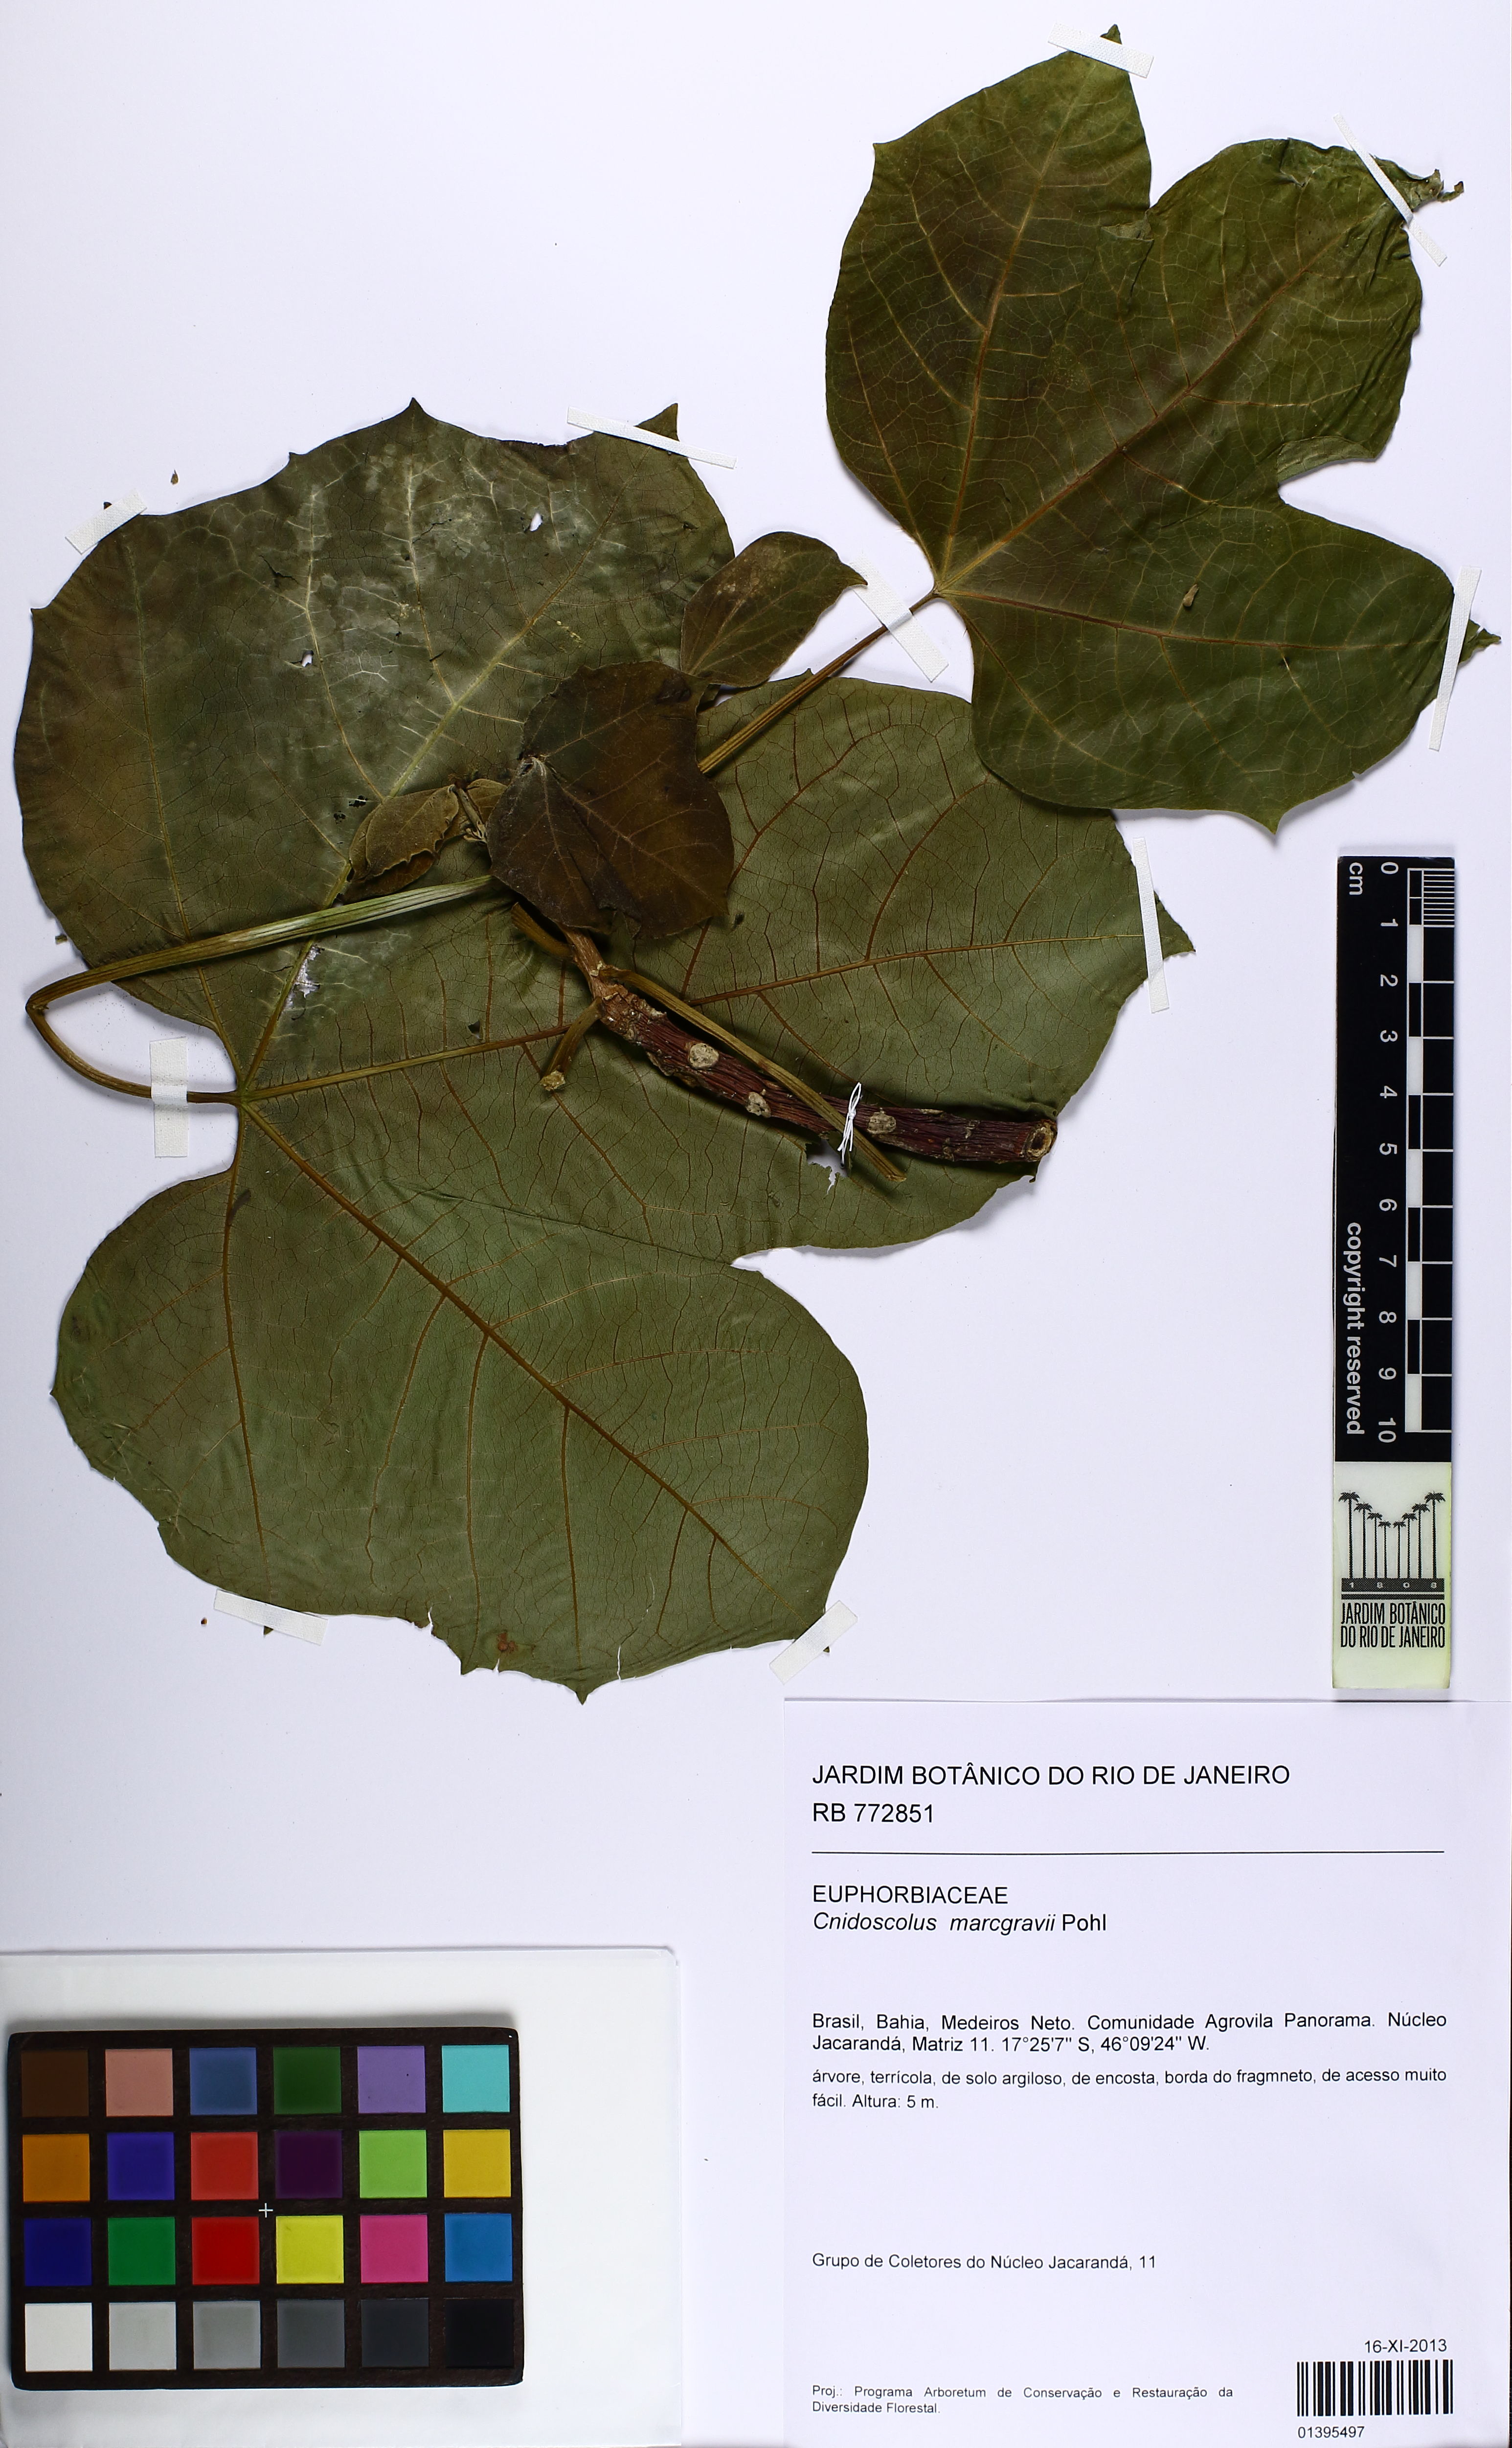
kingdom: Plantae
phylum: Tracheophyta
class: Magnoliopsida
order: Malpighiales
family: Euphorbiaceae
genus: Cnidoscolus
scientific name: Cnidoscolus urens
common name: Bull-nettle
